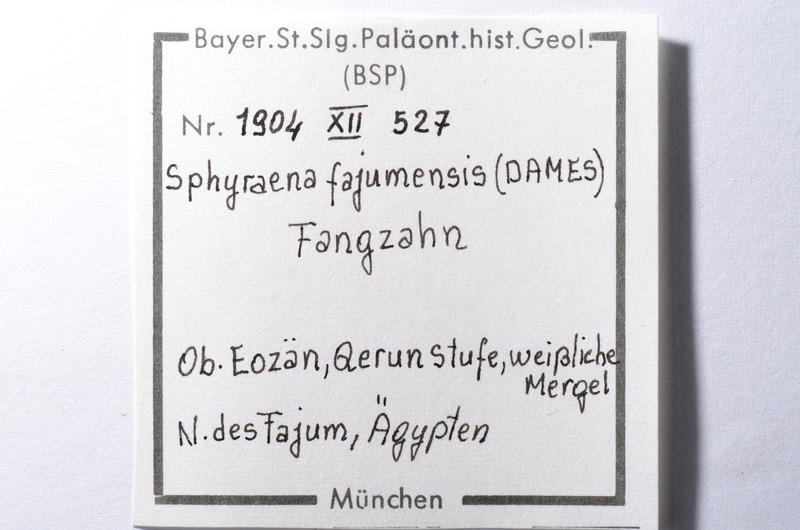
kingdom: Animalia
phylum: Chordata
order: Perciformes
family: Sphyraenidae
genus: Sphyraena
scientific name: Sphyraena Saurocephalus fajumensis
